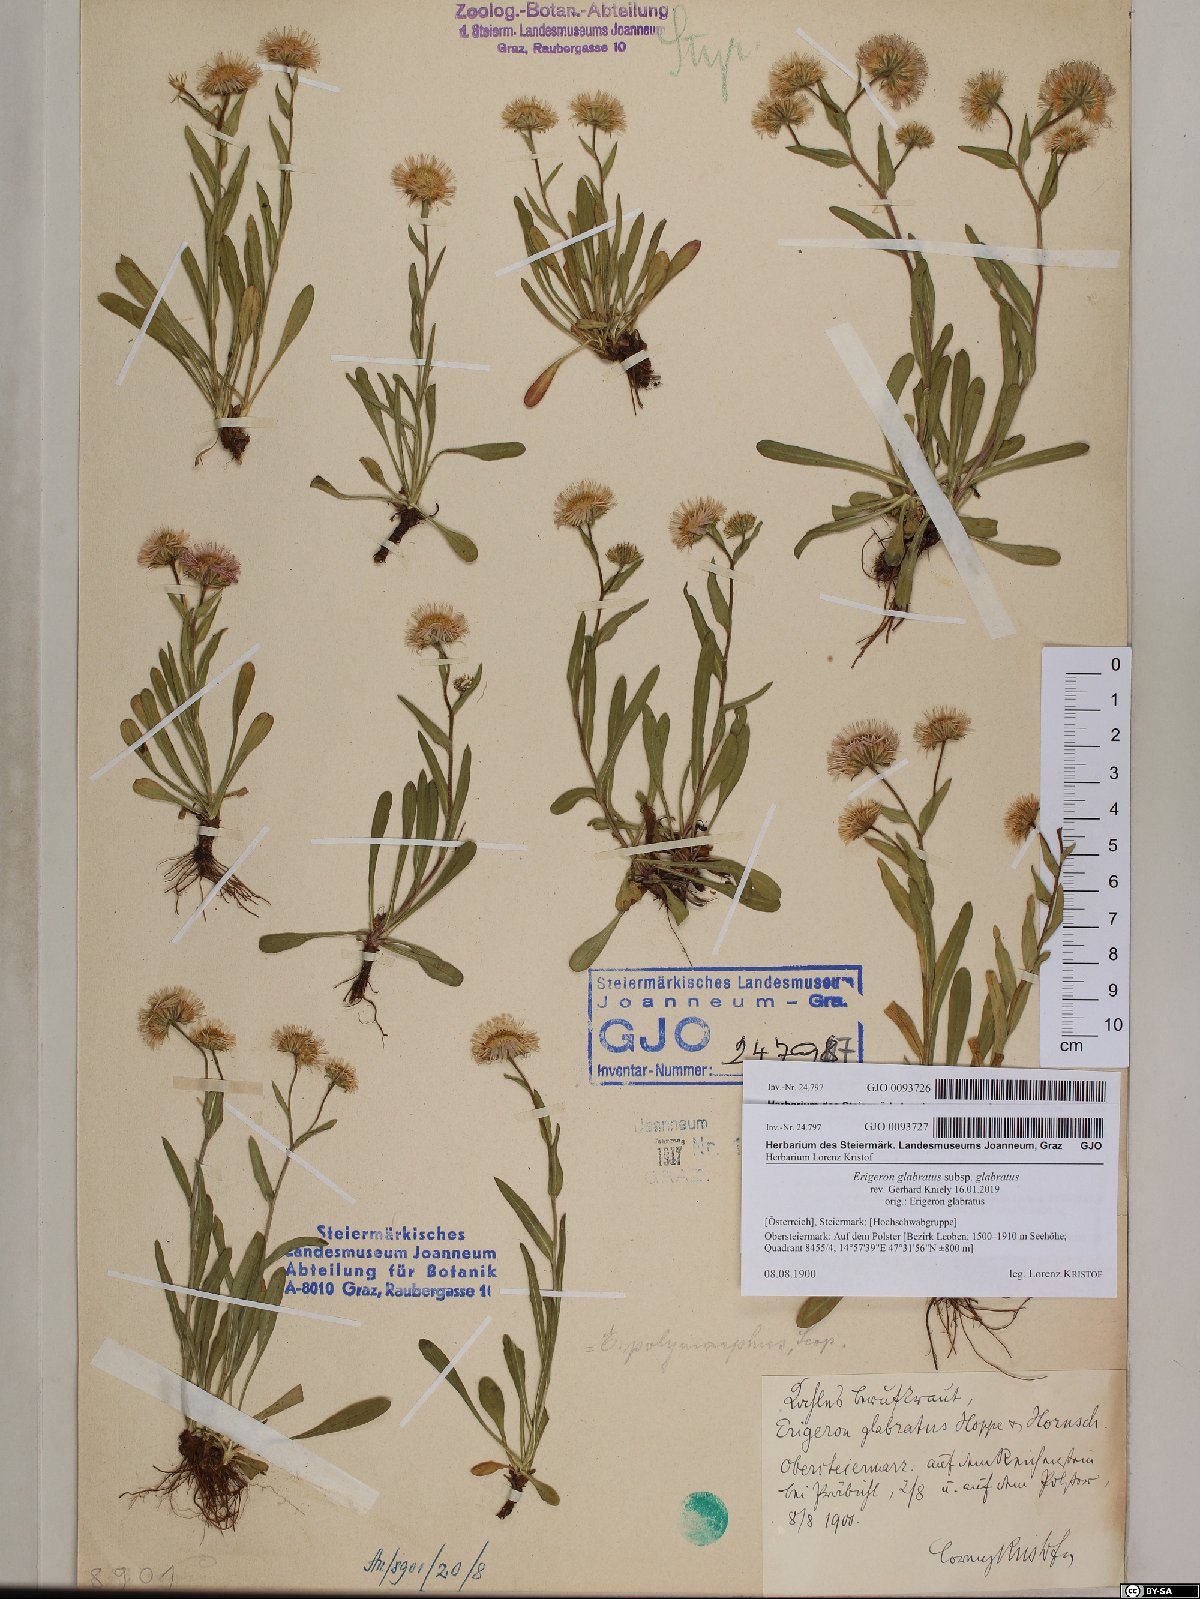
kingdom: Plantae
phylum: Tracheophyta
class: Magnoliopsida
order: Asterales
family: Asteraceae
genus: Erigeron
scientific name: Erigeron glabratus
